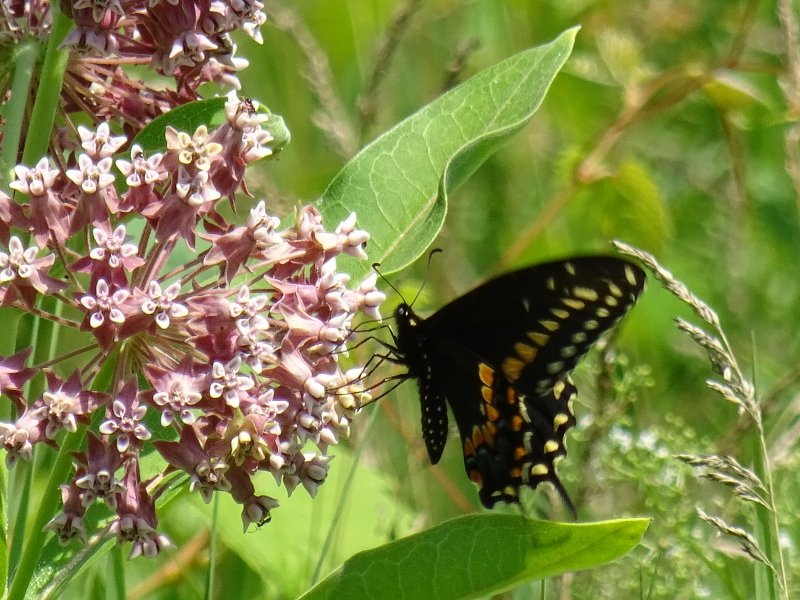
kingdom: Animalia
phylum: Arthropoda
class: Insecta
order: Lepidoptera
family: Papilionidae
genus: Papilio
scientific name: Papilio polyxenes
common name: Black Swallowtail
